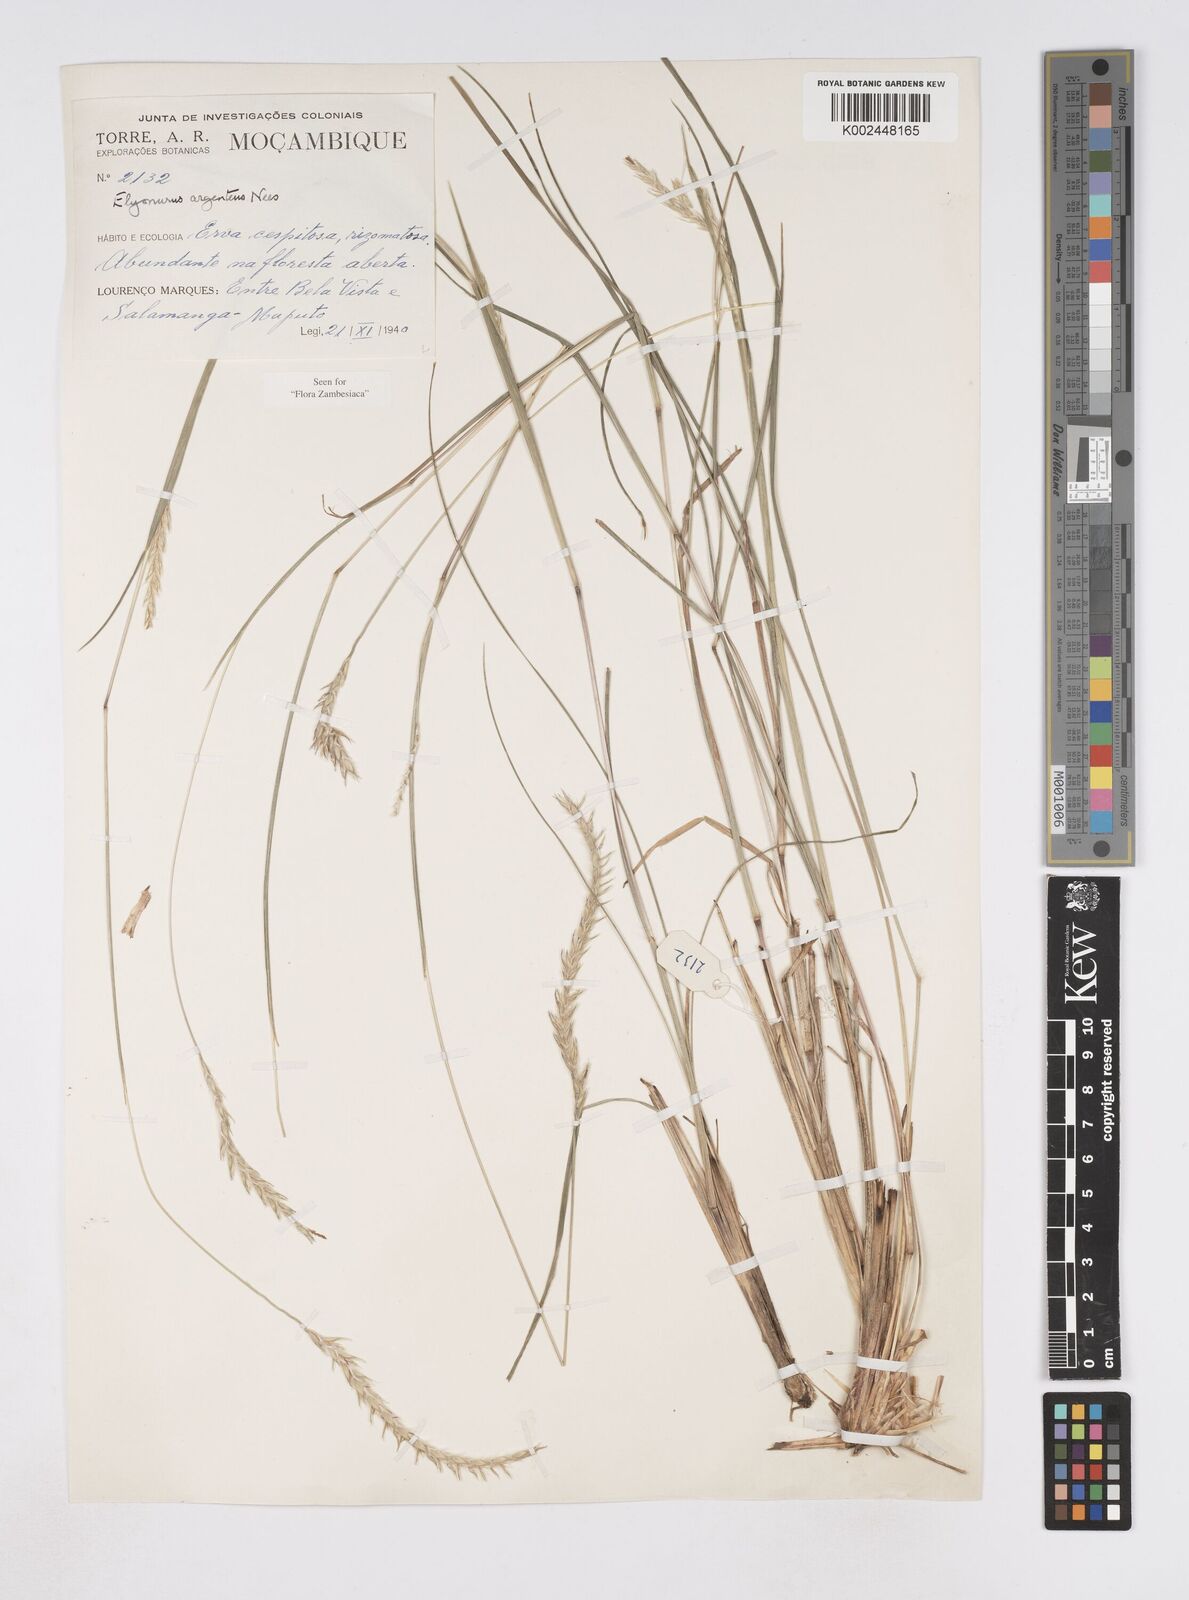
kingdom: Plantae
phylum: Tracheophyta
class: Liliopsida
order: Poales
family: Poaceae
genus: Elionurus
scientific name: Elionurus muticus
